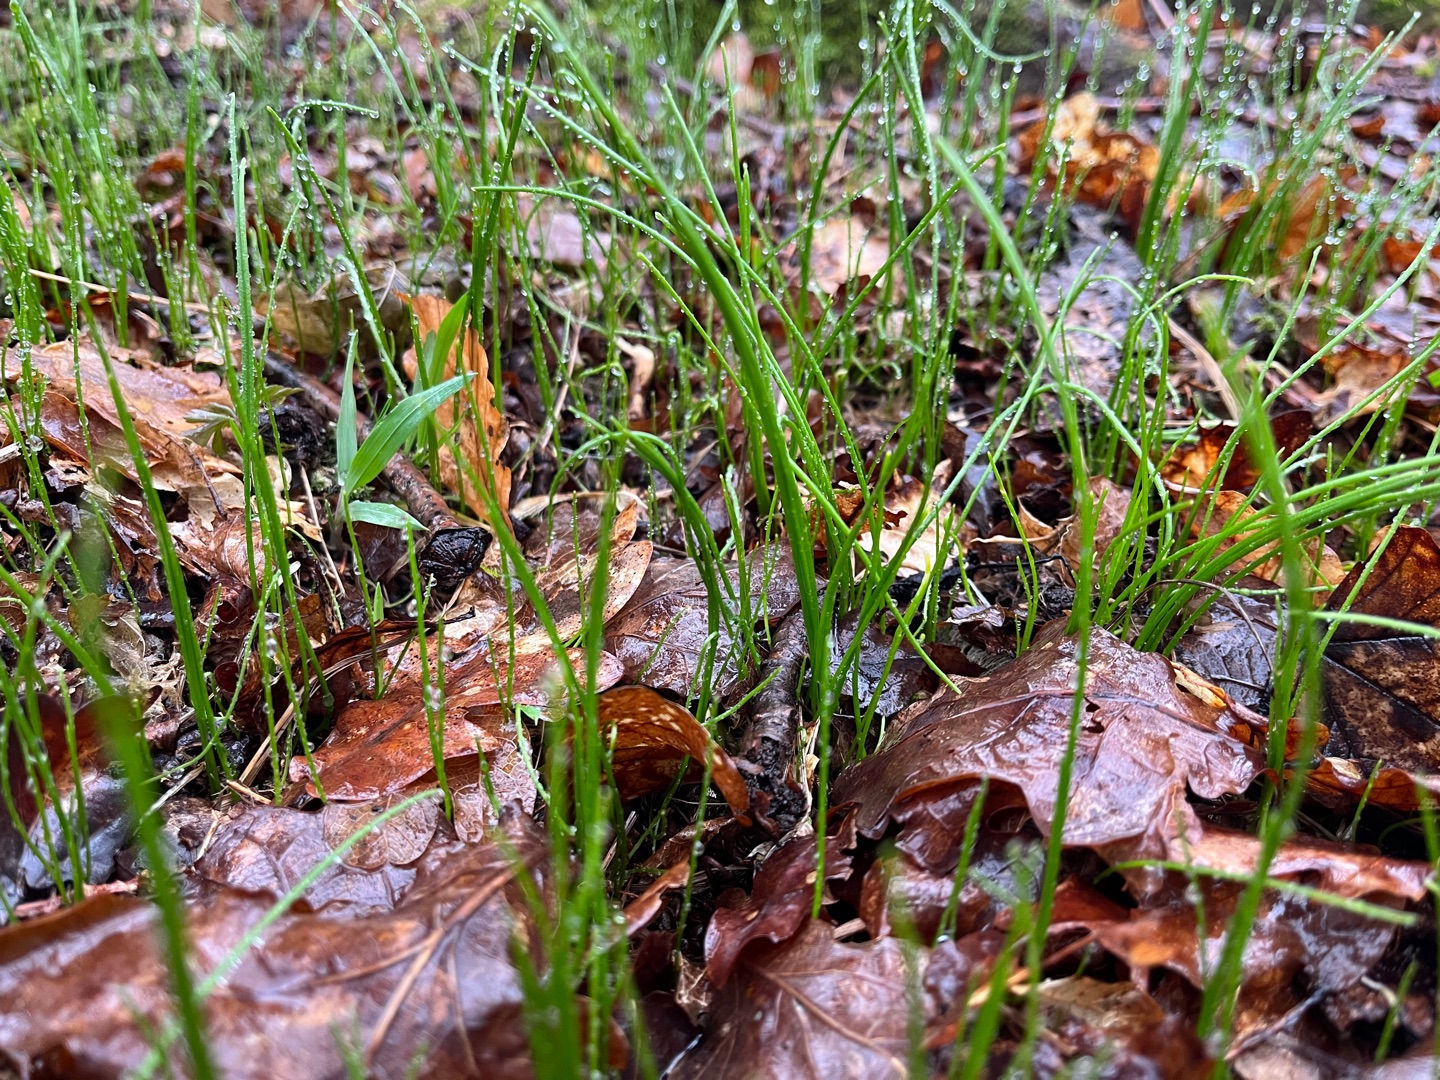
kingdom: Plantae
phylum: Tracheophyta
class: Liliopsida
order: Liliales
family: Liliaceae
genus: Gagea
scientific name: Gagea spathacea
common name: Hylster-guldstjerne
